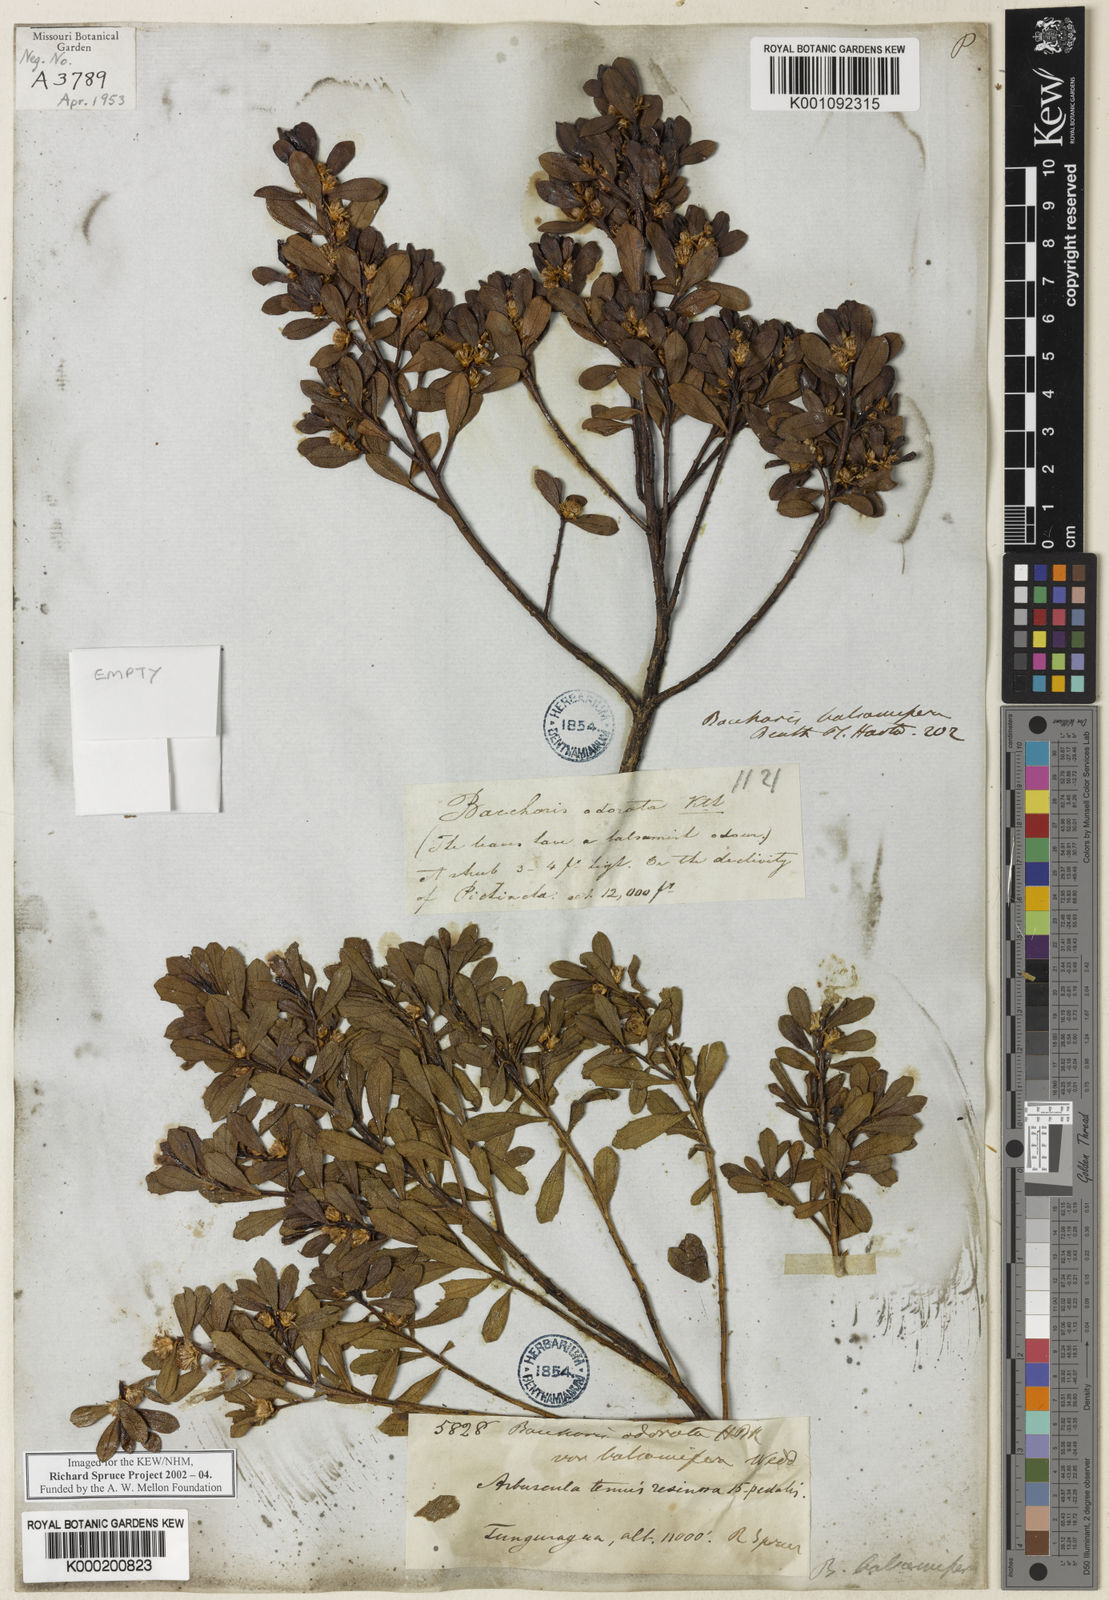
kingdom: Plantae
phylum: Tracheophyta
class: Magnoliopsida
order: Asterales
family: Asteraceae
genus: Baccharis
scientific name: Baccharis buxifolia
